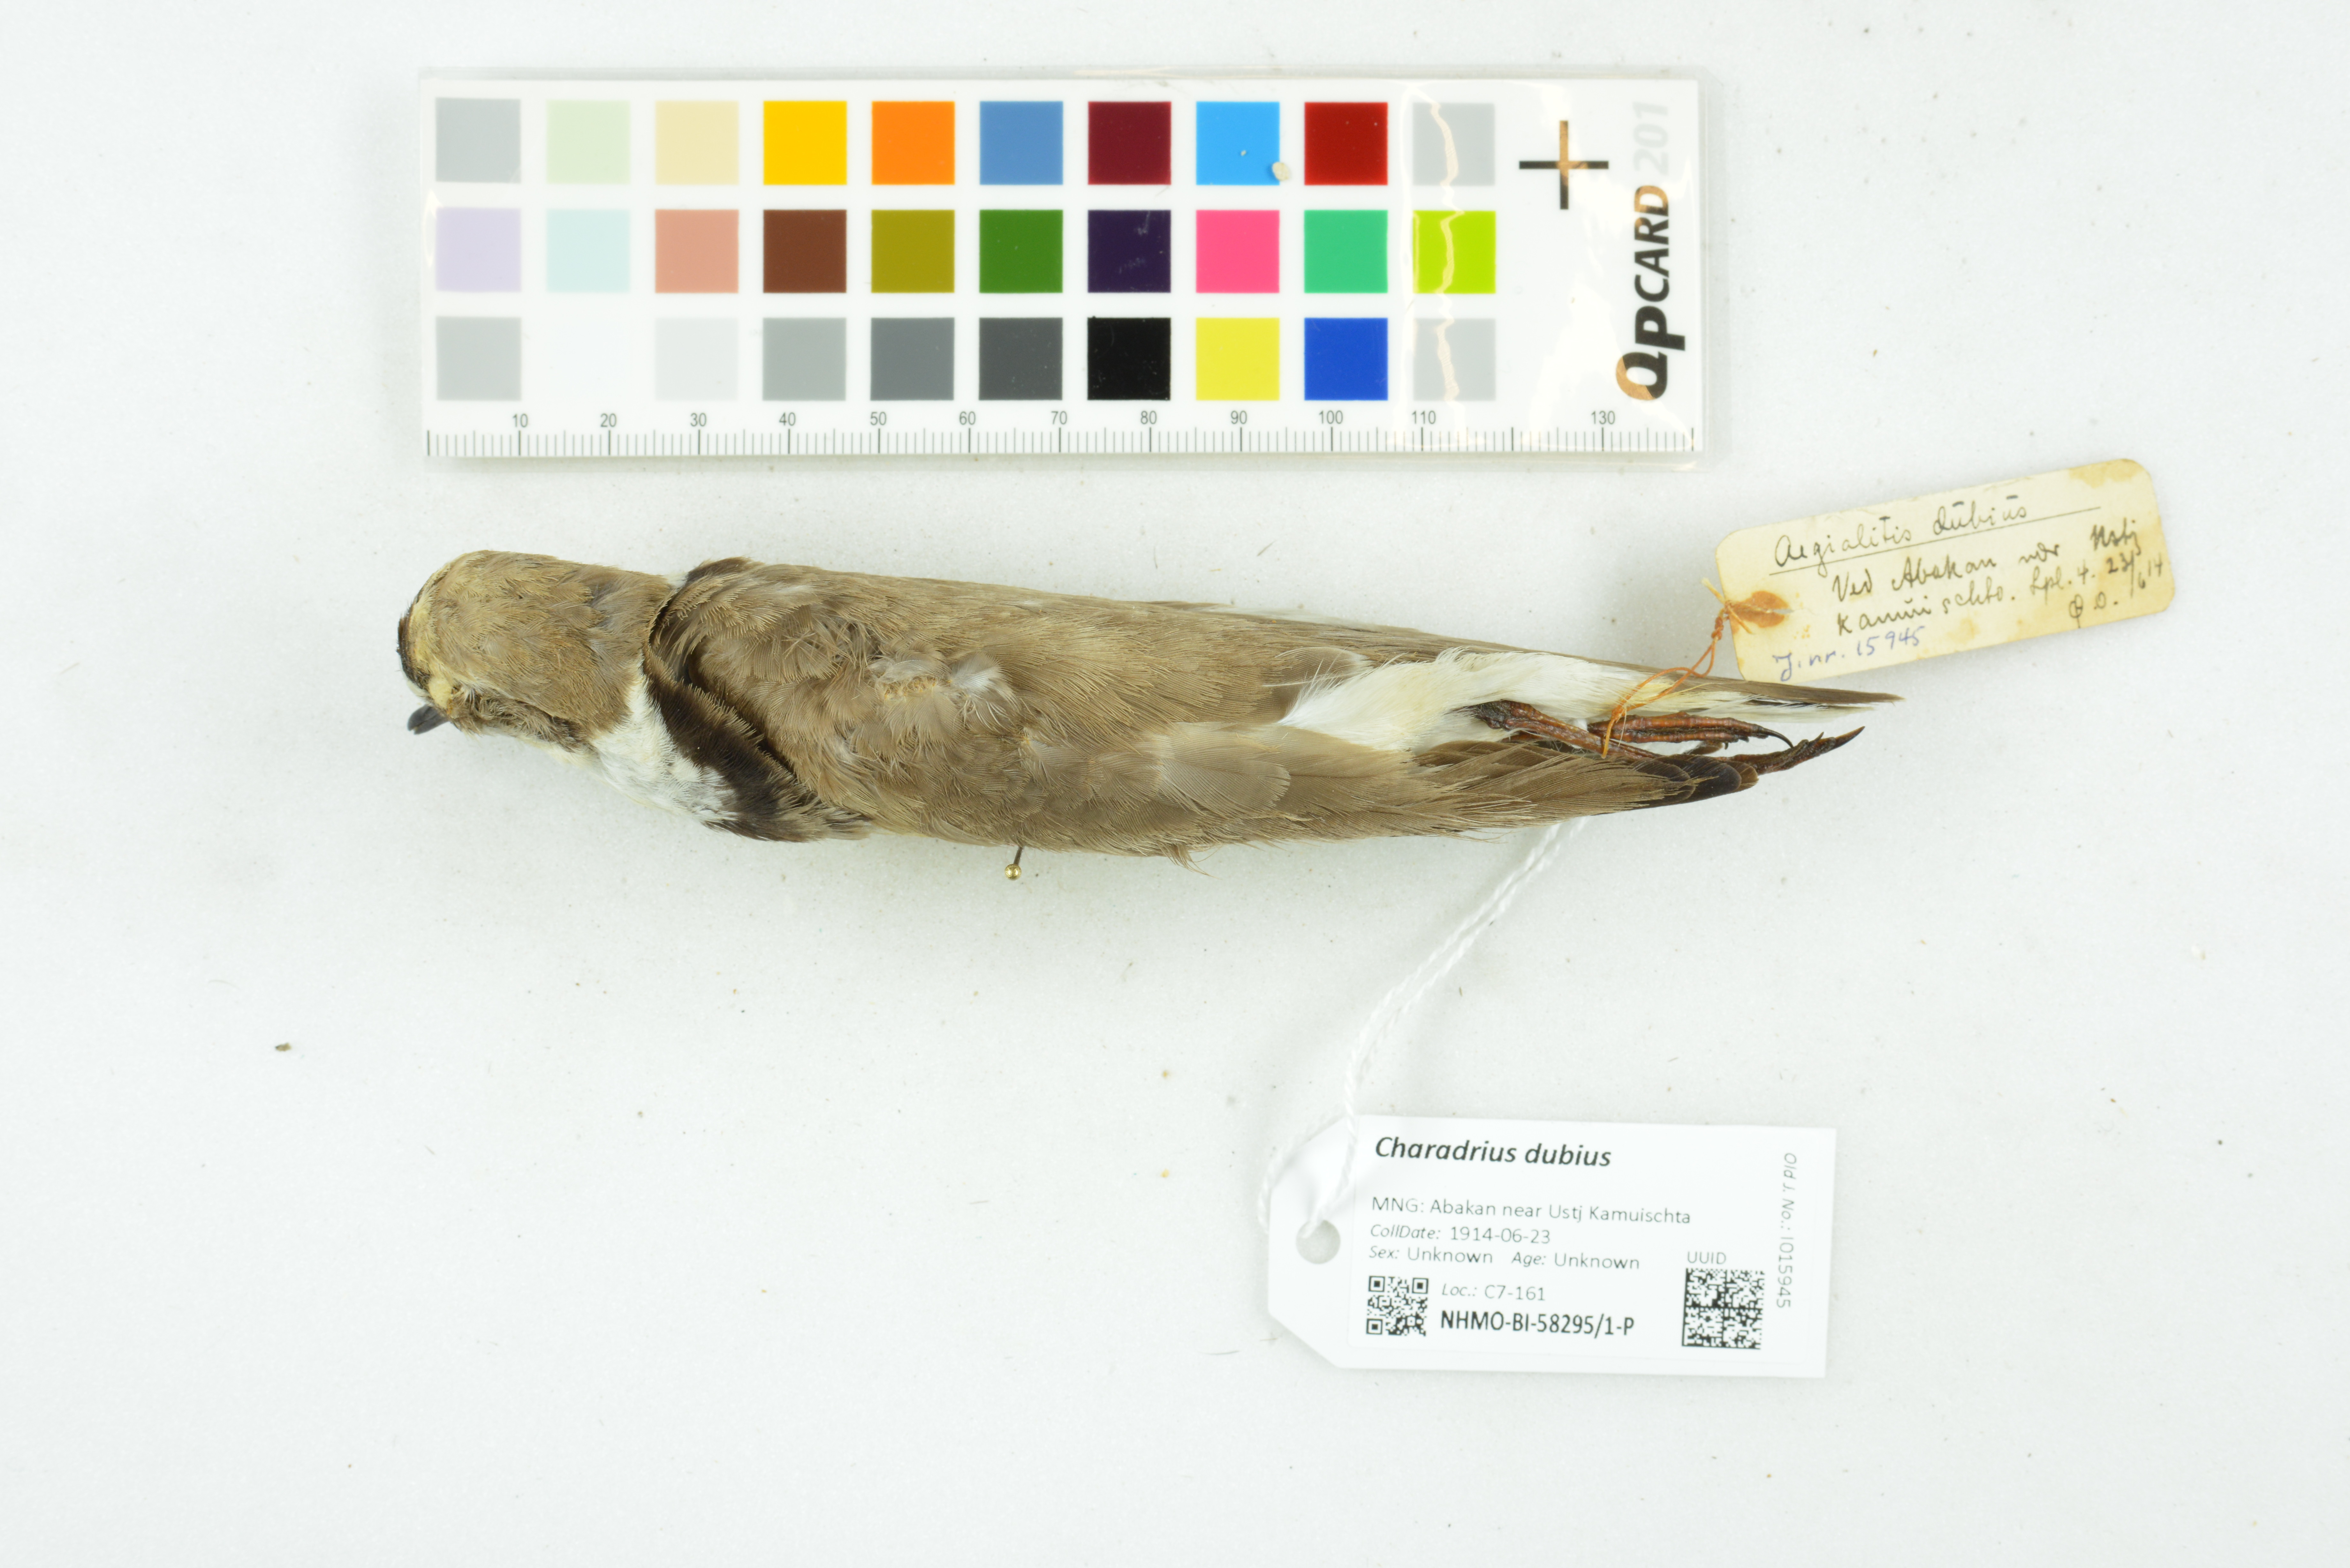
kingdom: Animalia
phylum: Chordata
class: Aves
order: Charadriiformes
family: Charadriidae
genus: Charadrius
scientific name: Charadrius dubius
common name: Little ringed plover
